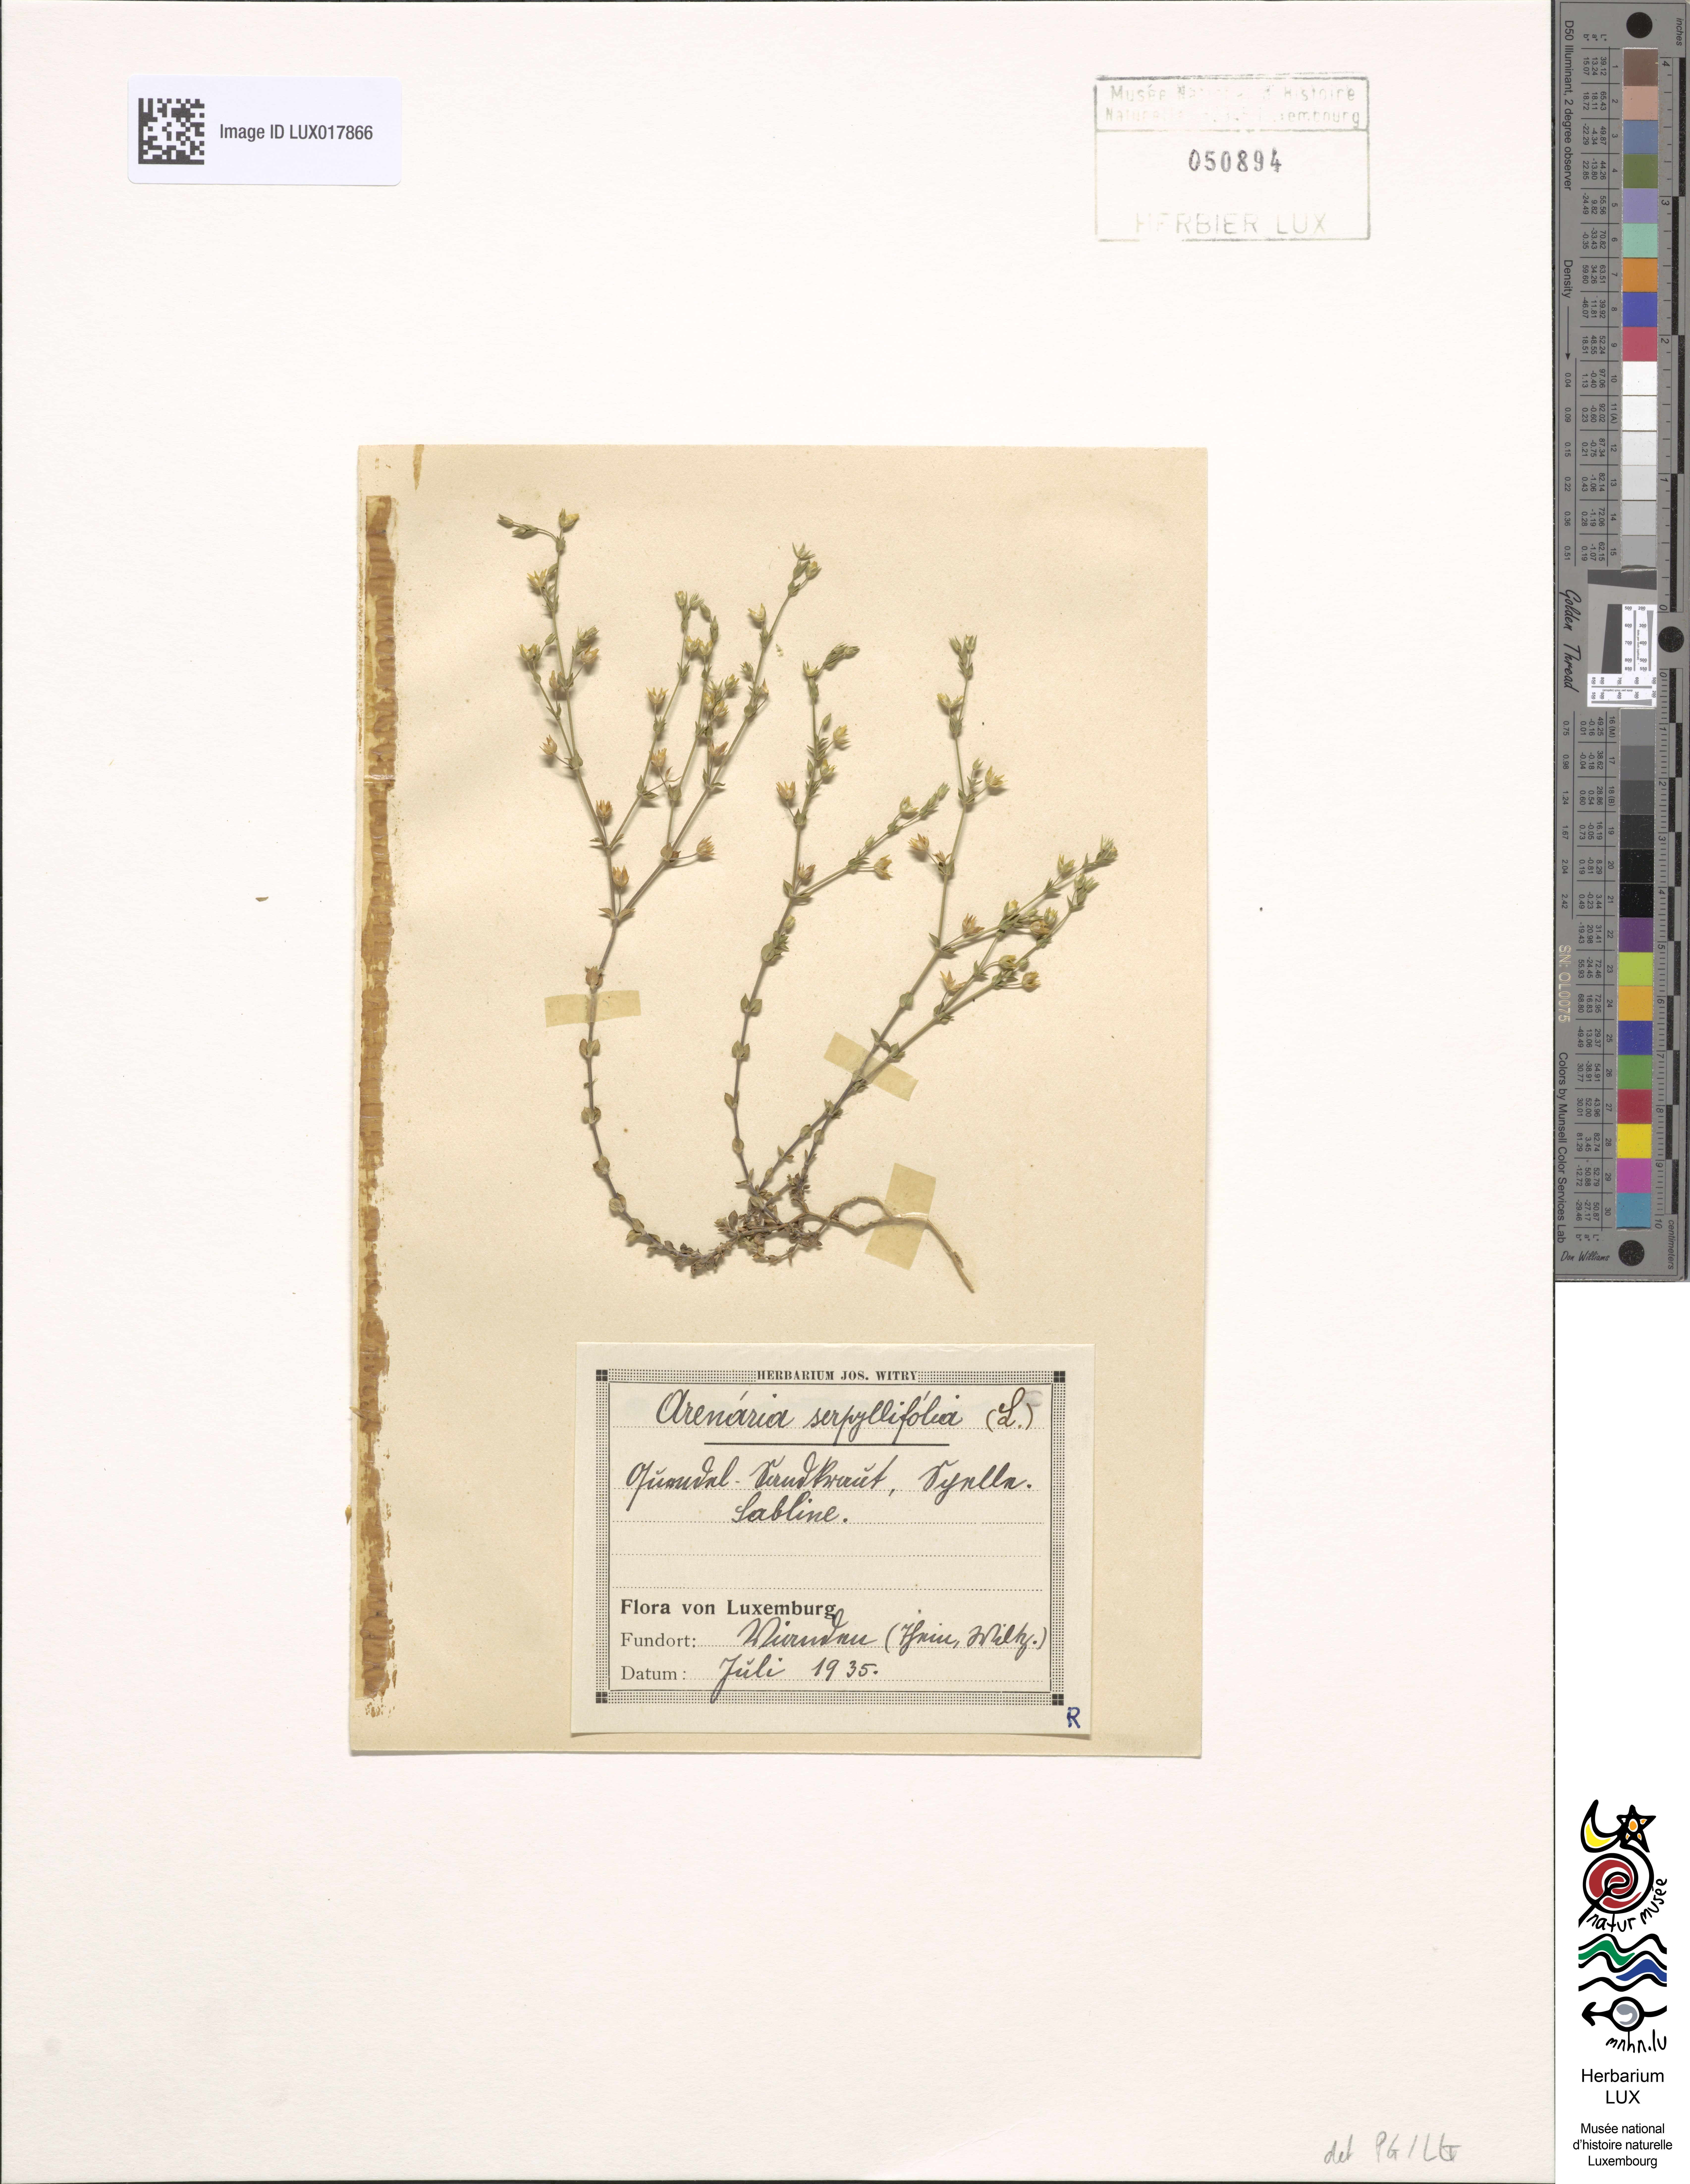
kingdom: Plantae
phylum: Tracheophyta
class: Magnoliopsida
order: Caryophyllales
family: Caryophyllaceae
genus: Arenaria
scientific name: Arenaria serpyllifolia
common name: Thyme-leaved sandwort
